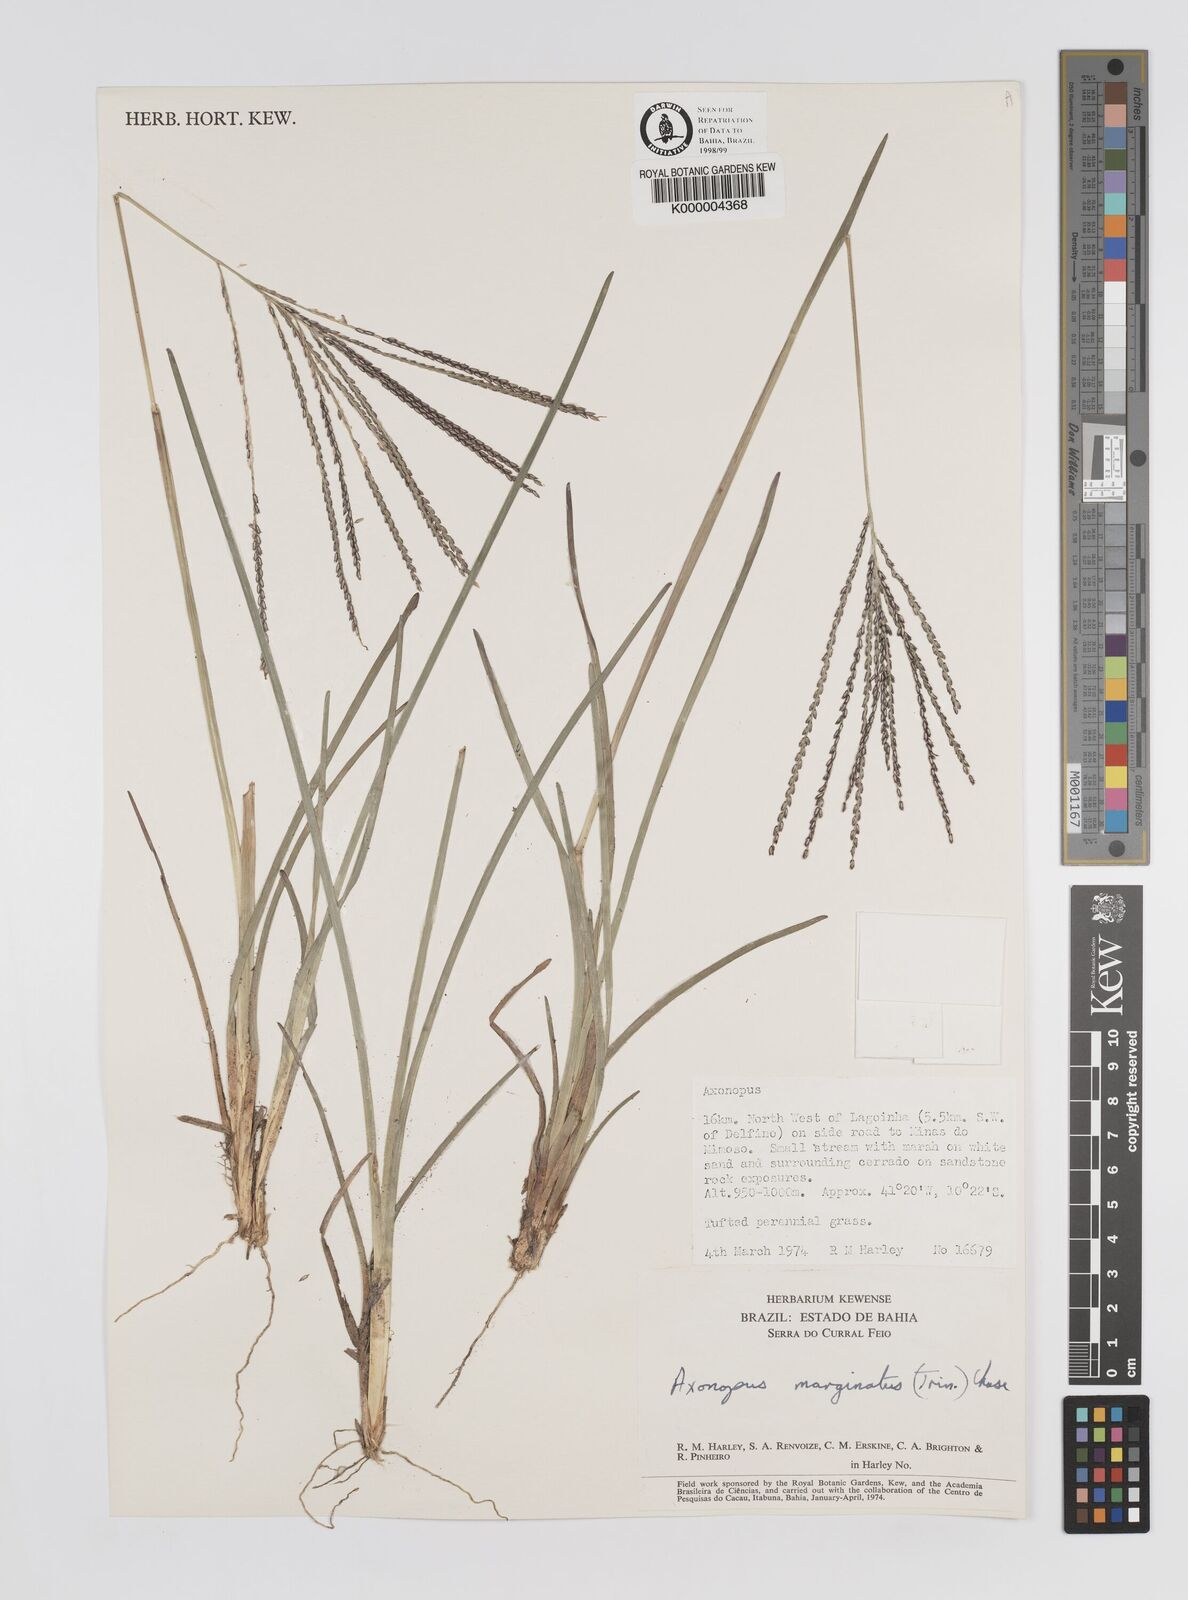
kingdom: Plantae
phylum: Tracheophyta
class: Liliopsida
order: Poales
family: Poaceae
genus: Axonopus
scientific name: Axonopus
